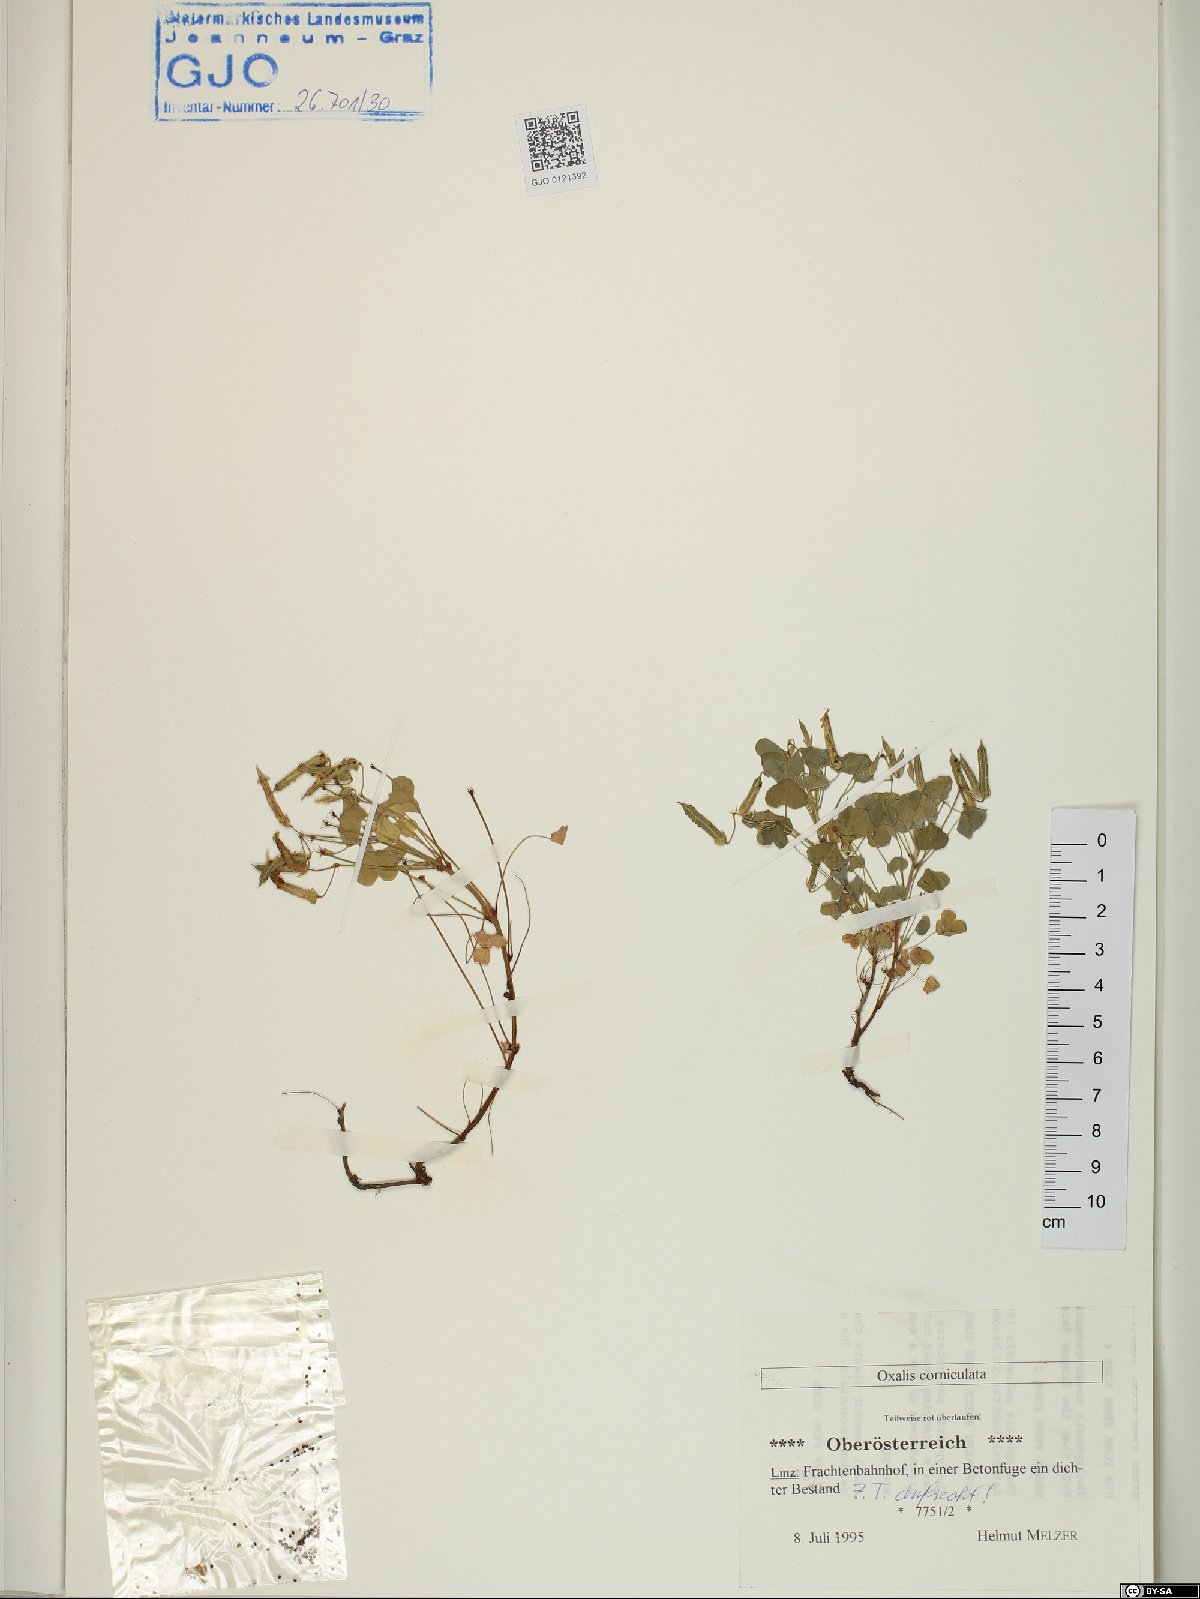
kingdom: Plantae
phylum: Tracheophyta
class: Magnoliopsida
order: Oxalidales
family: Oxalidaceae
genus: Oxalis
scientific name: Oxalis corniculata
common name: Procumbent yellow-sorrel
